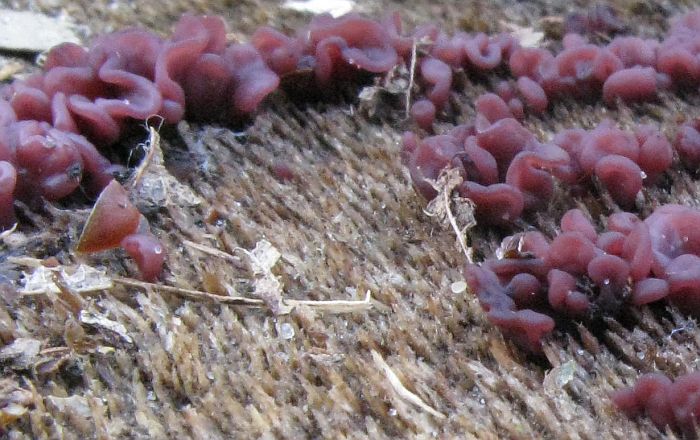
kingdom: Fungi
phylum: Ascomycota
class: Leotiomycetes
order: Helotiales
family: Gelatinodiscaceae
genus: Ascocoryne
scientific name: Ascocoryne sarcoides
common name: rødlilla sejskive
